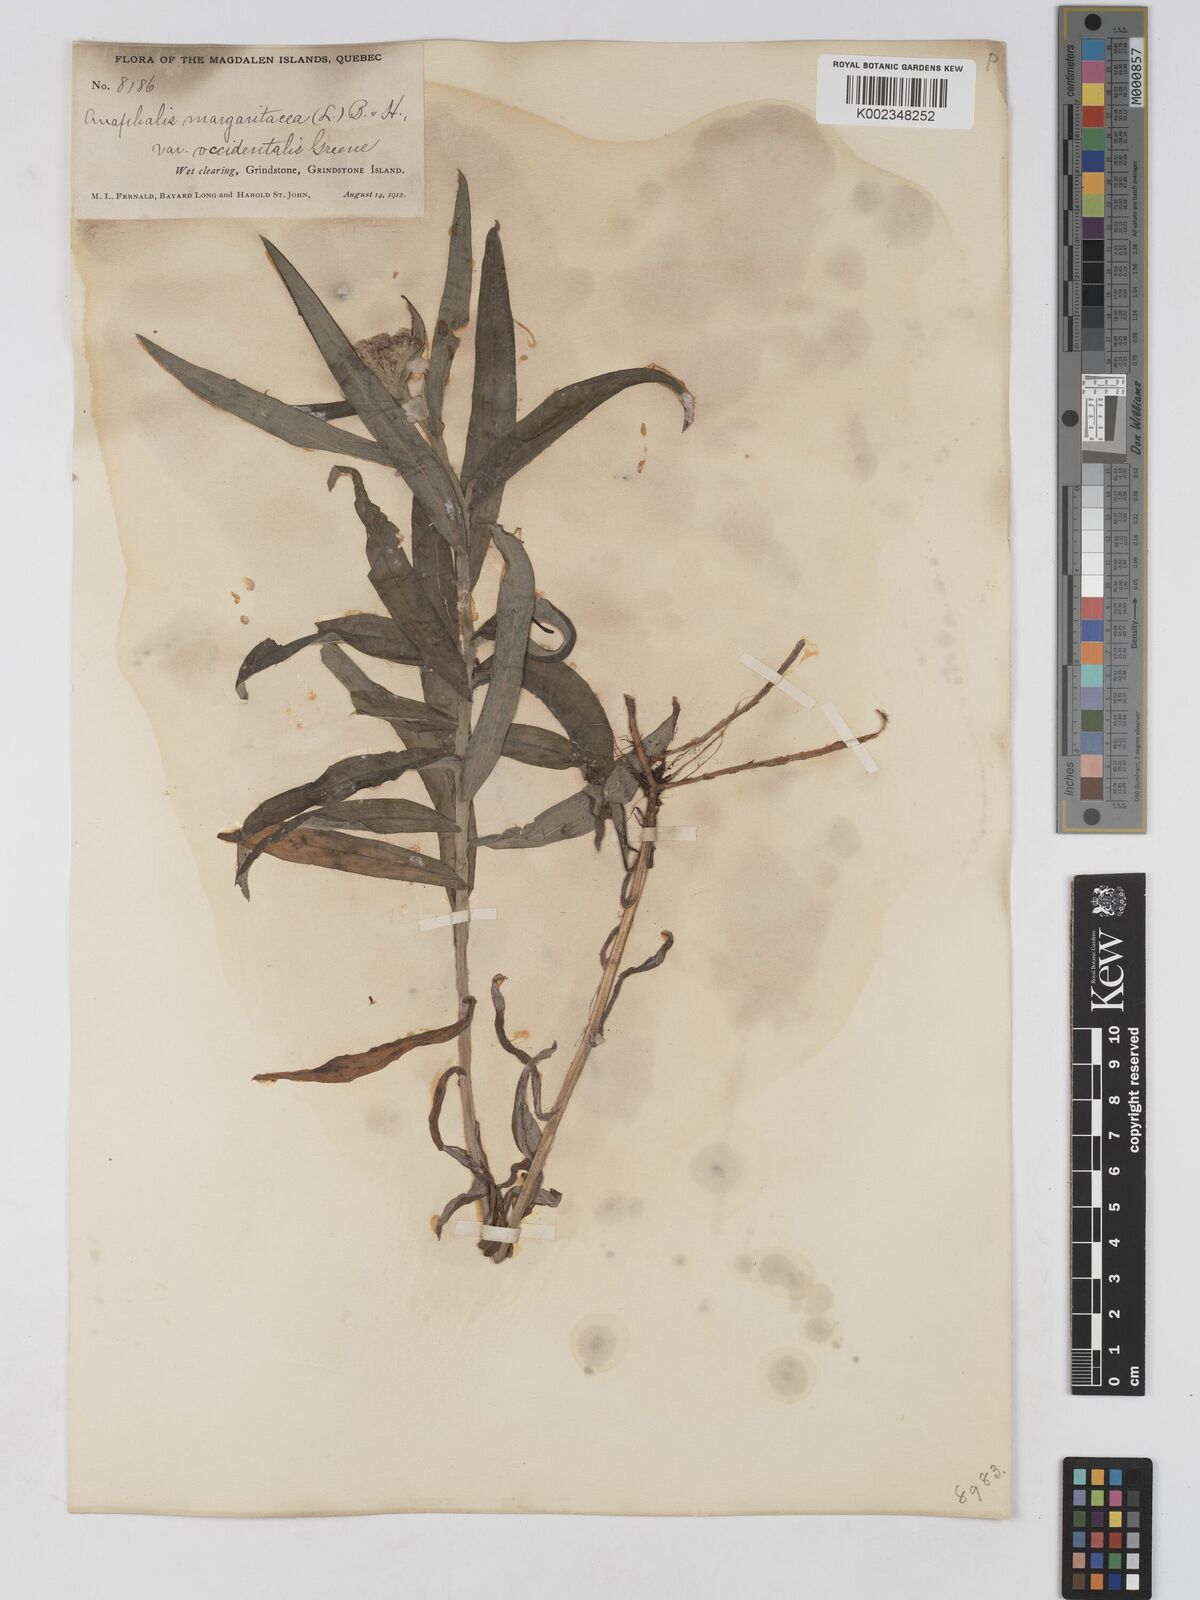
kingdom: Plantae
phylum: Tracheophyta
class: Magnoliopsida
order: Asterales
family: Asteraceae
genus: Anaphalis
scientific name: Anaphalis margaritacea
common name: Pearly everlasting
